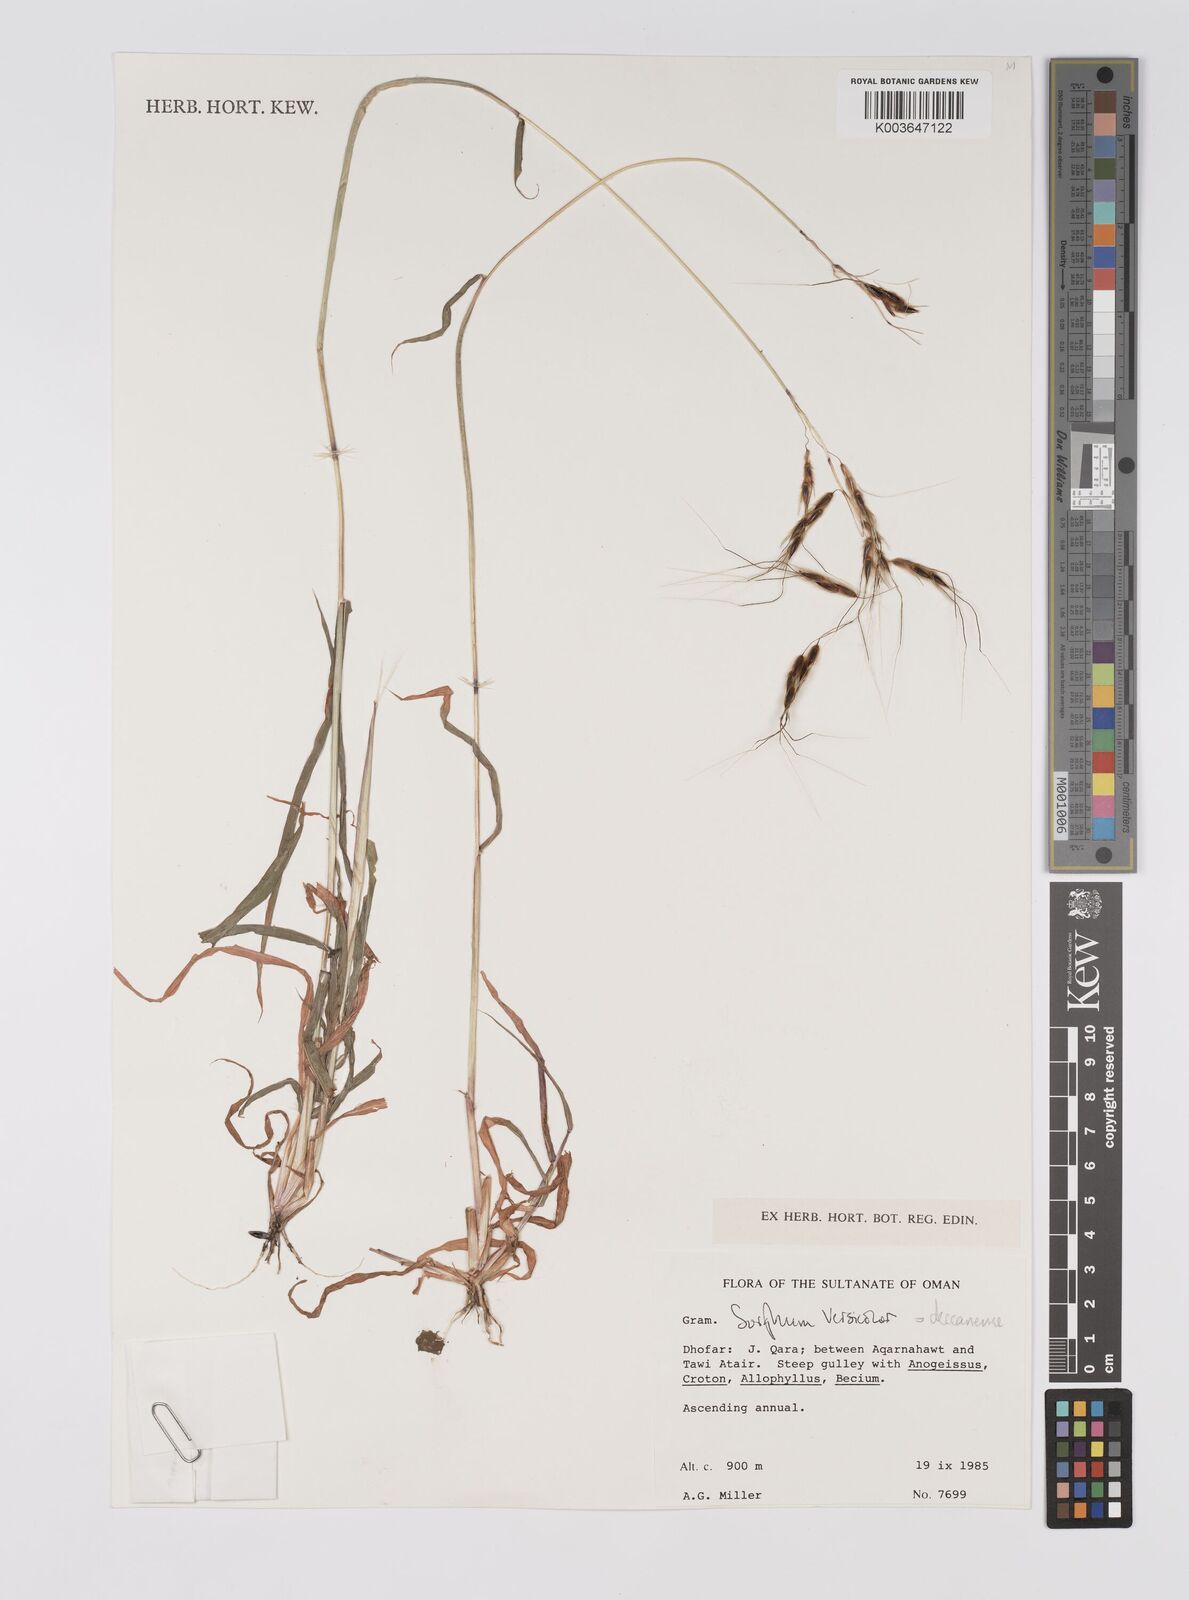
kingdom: Plantae
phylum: Tracheophyta
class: Liliopsida
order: Poales
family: Poaceae
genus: Sarga
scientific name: Sarga purpureosericea
